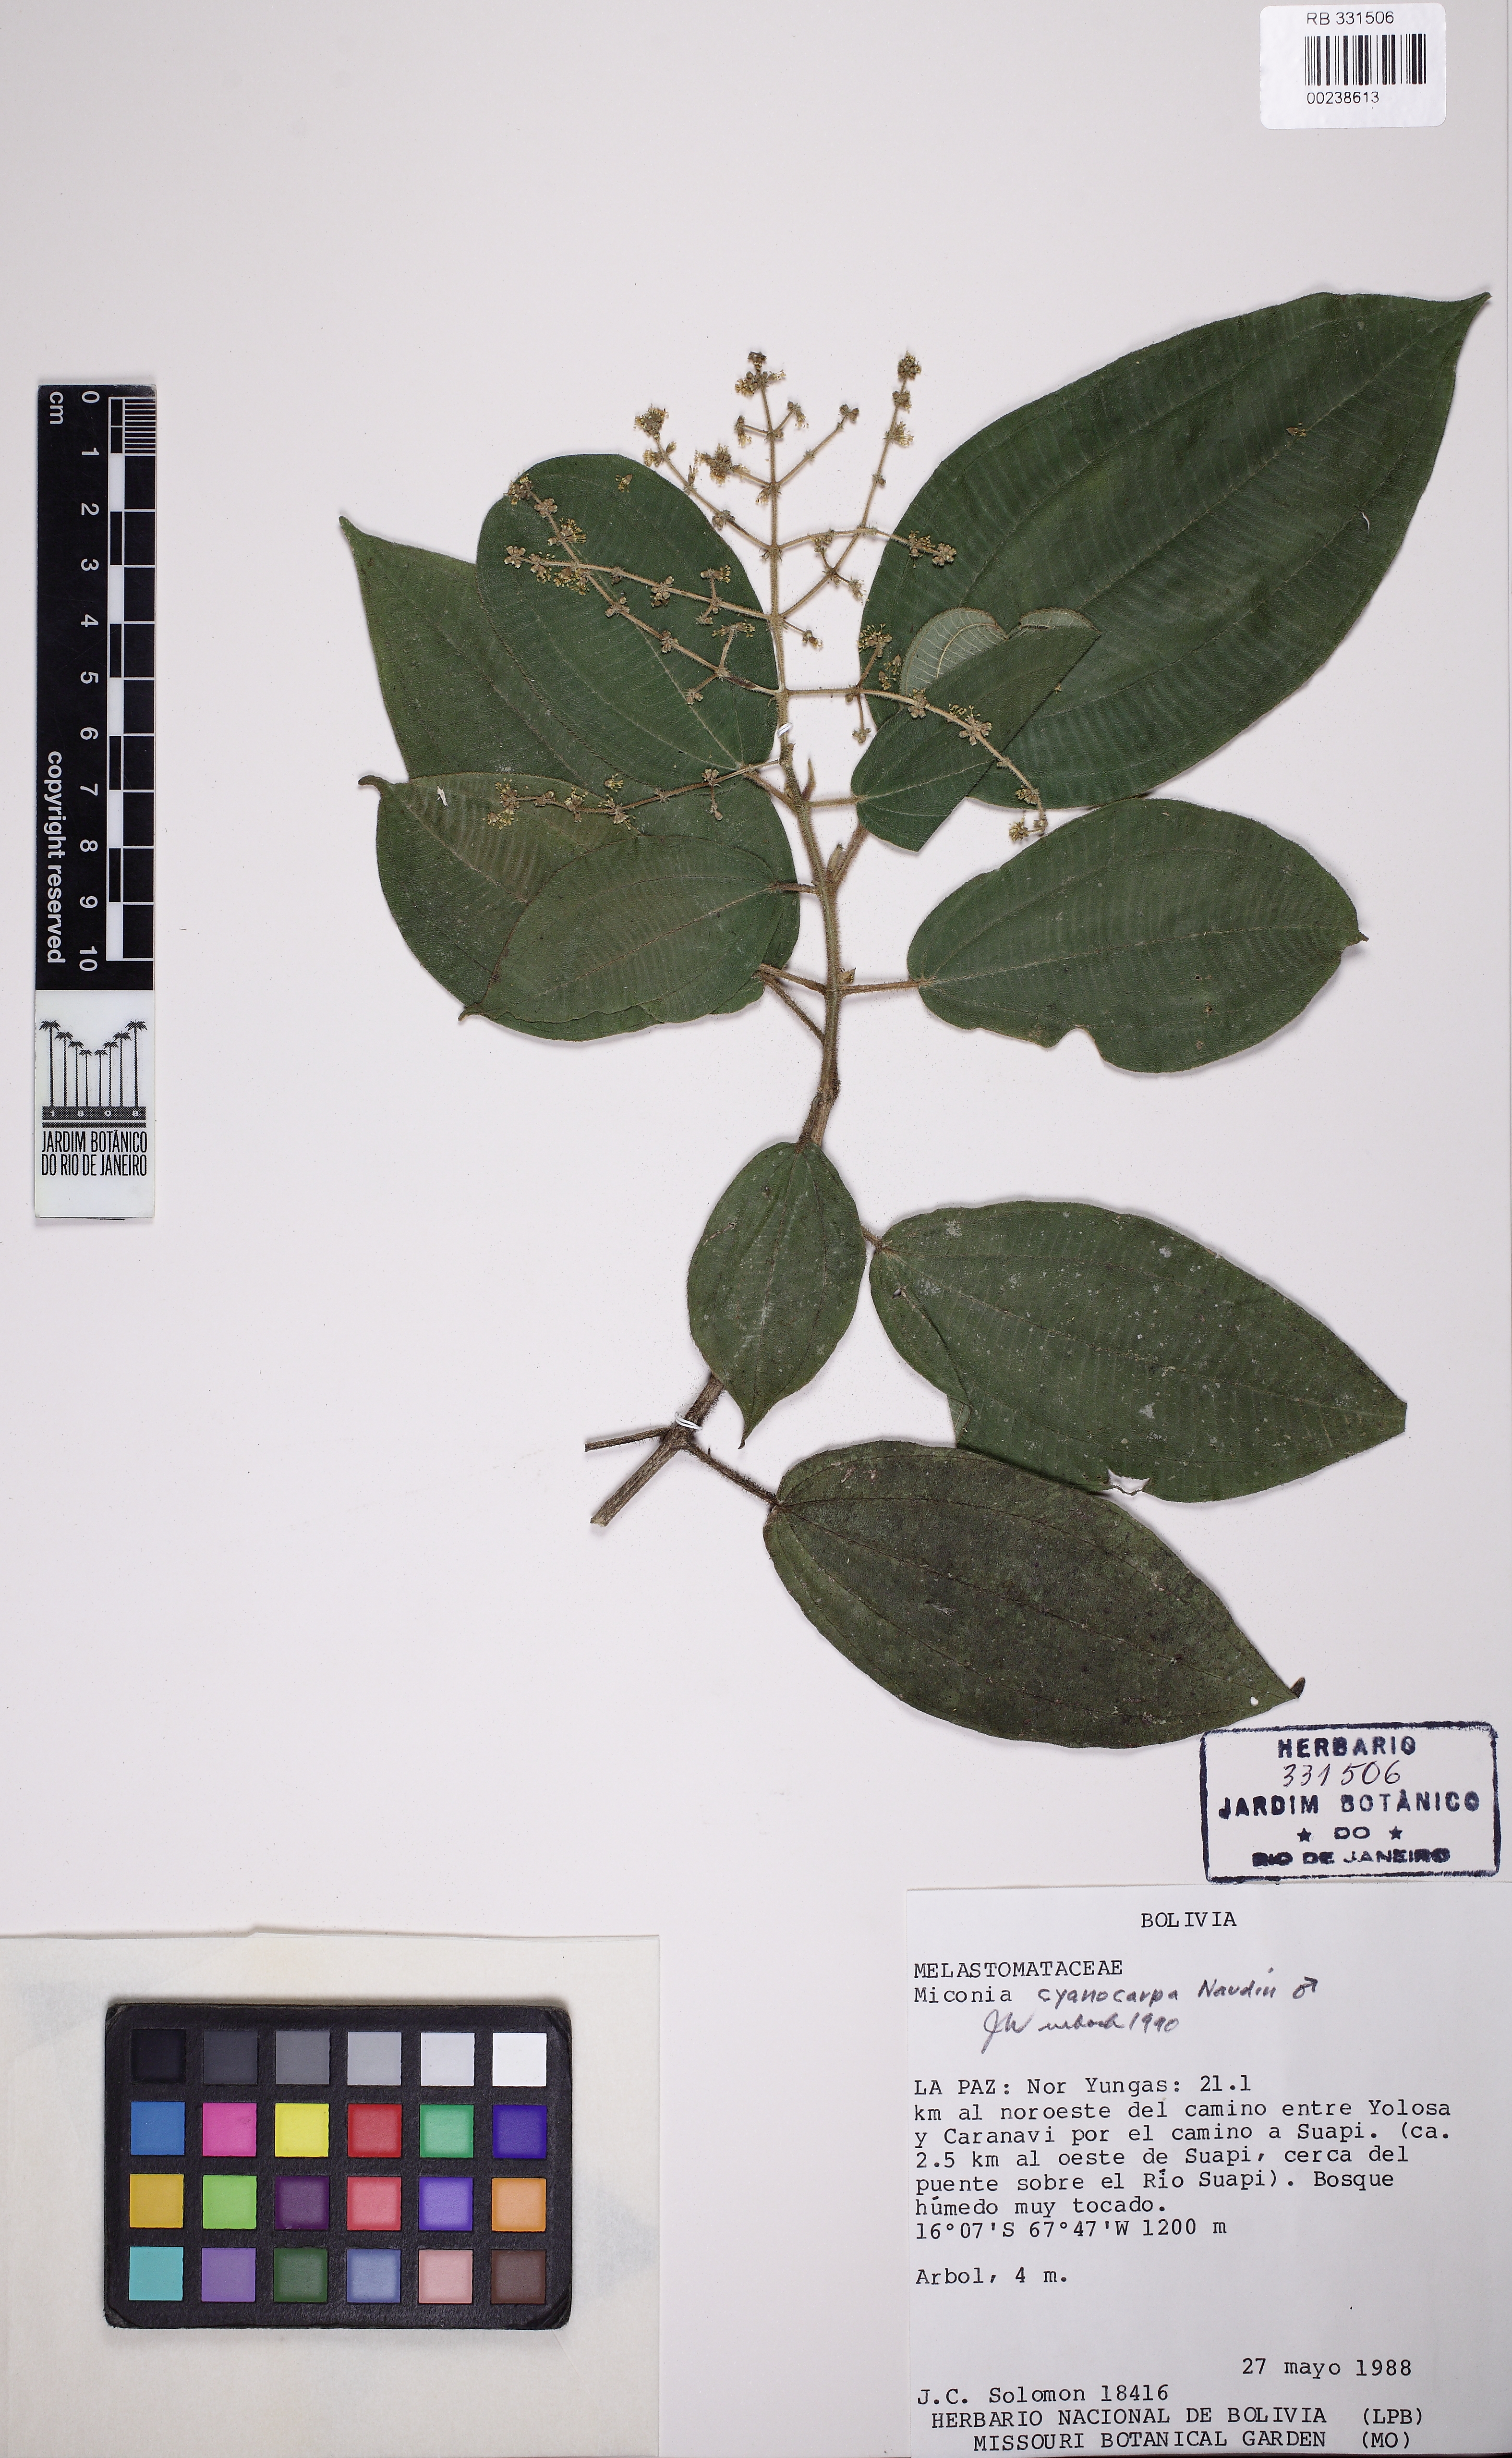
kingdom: Plantae
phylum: Tracheophyta
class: Magnoliopsida
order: Myrtales
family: Melastomataceae
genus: Miconia
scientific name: Miconia cyanocarpa
